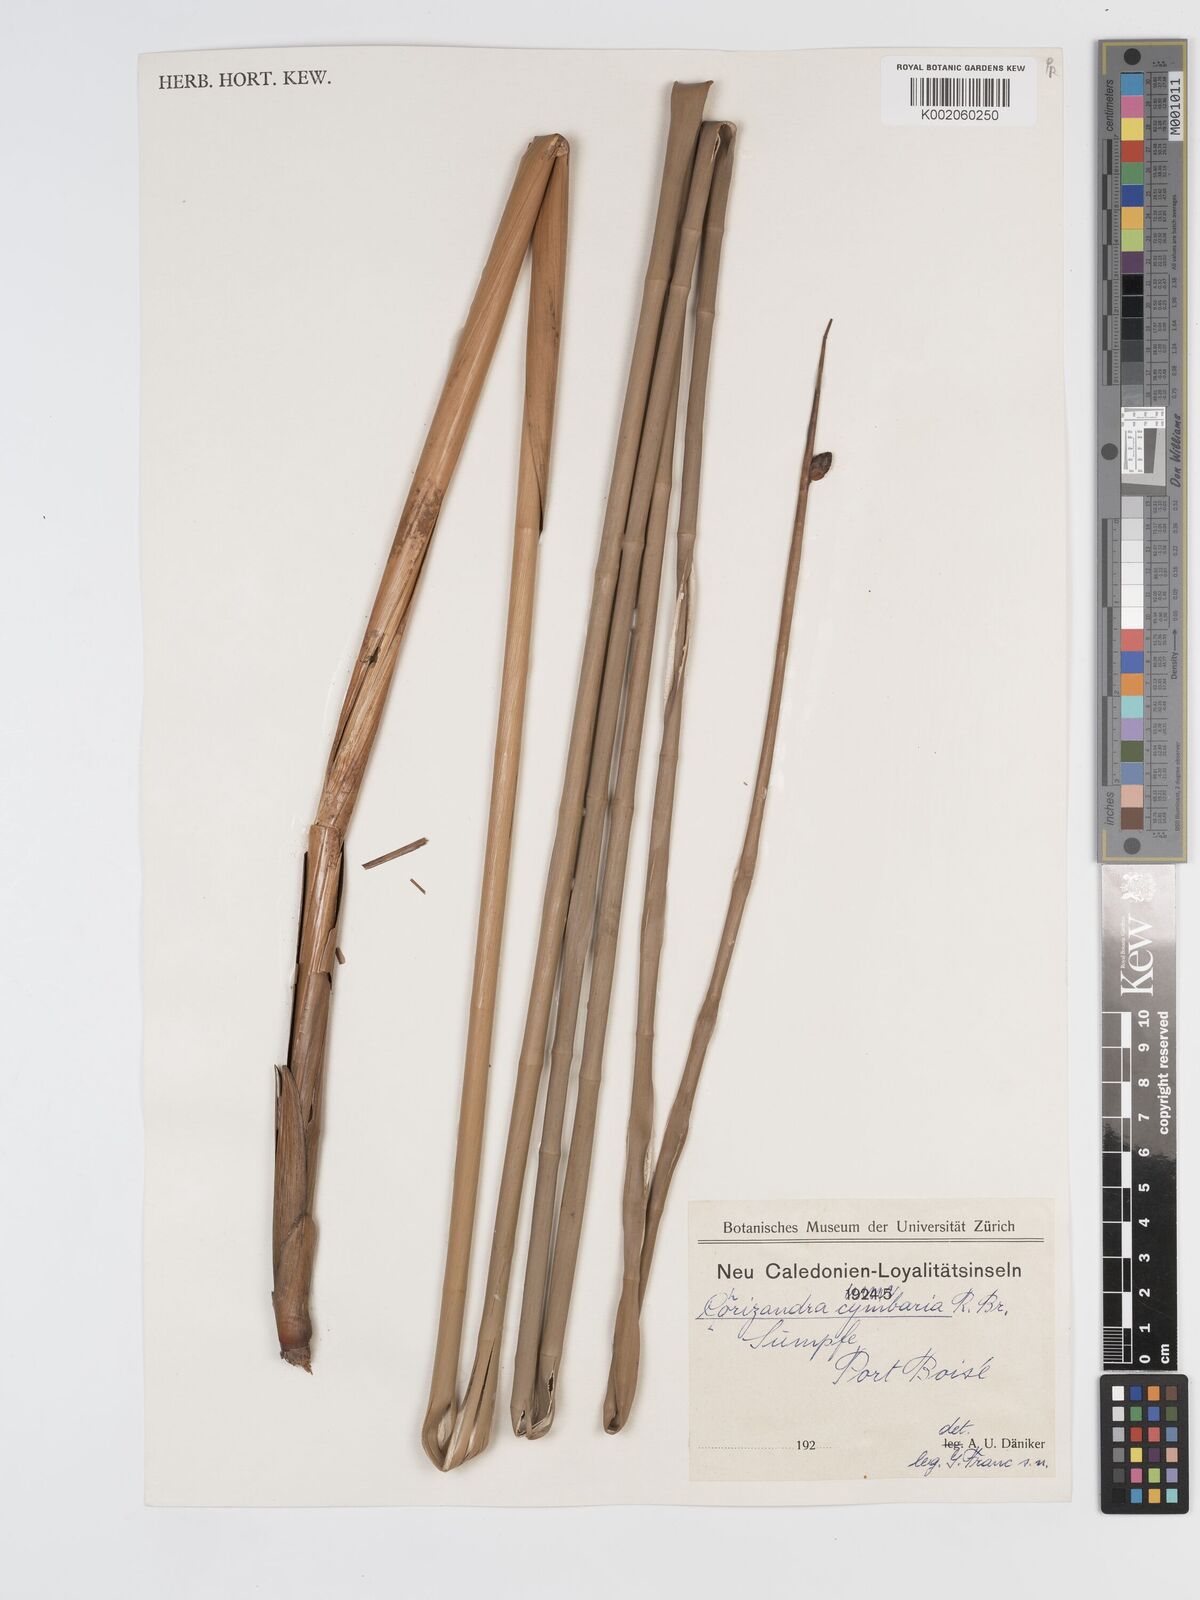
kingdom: Plantae
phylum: Tracheophyta
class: Liliopsida
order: Poales
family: Cyperaceae
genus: Lepironia
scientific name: Lepironia articulata
